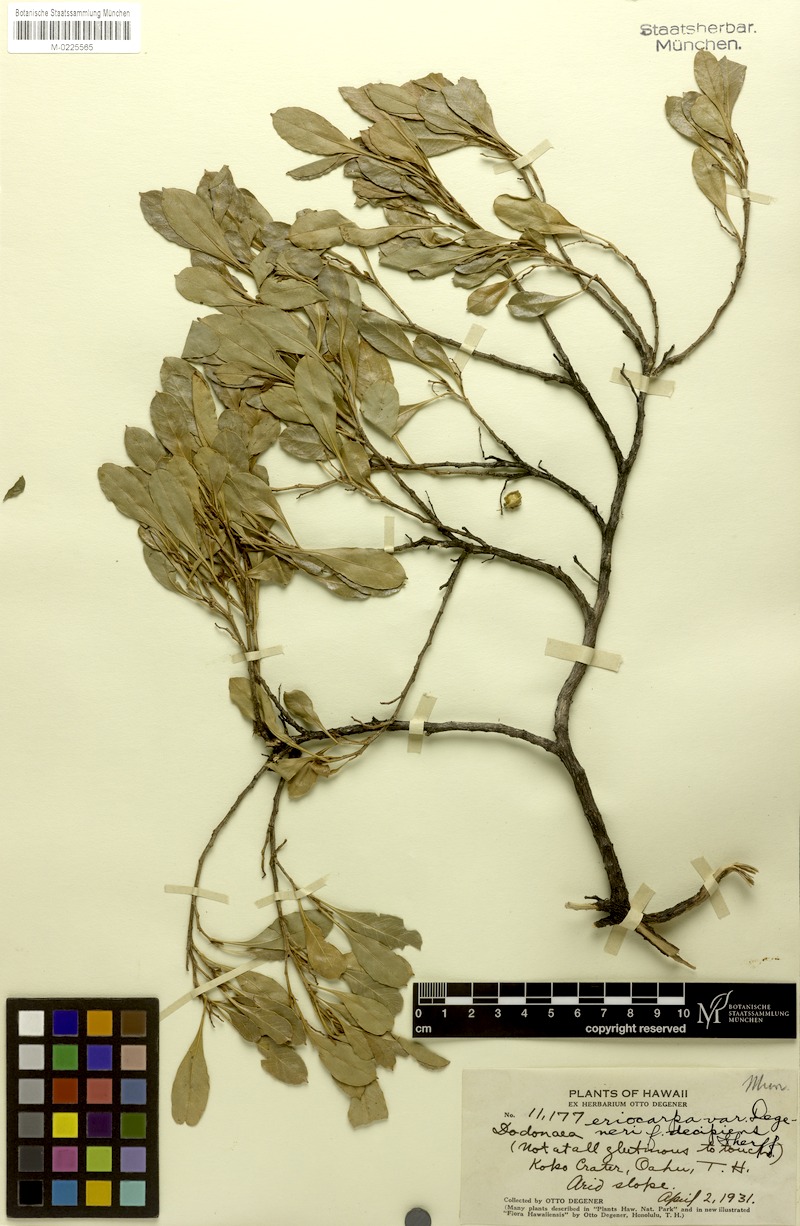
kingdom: Plantae
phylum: Tracheophyta
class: Magnoliopsida
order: Sapindales
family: Sapindaceae
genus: Dodonaea
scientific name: Dodonaea viscosa
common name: Hopbush
